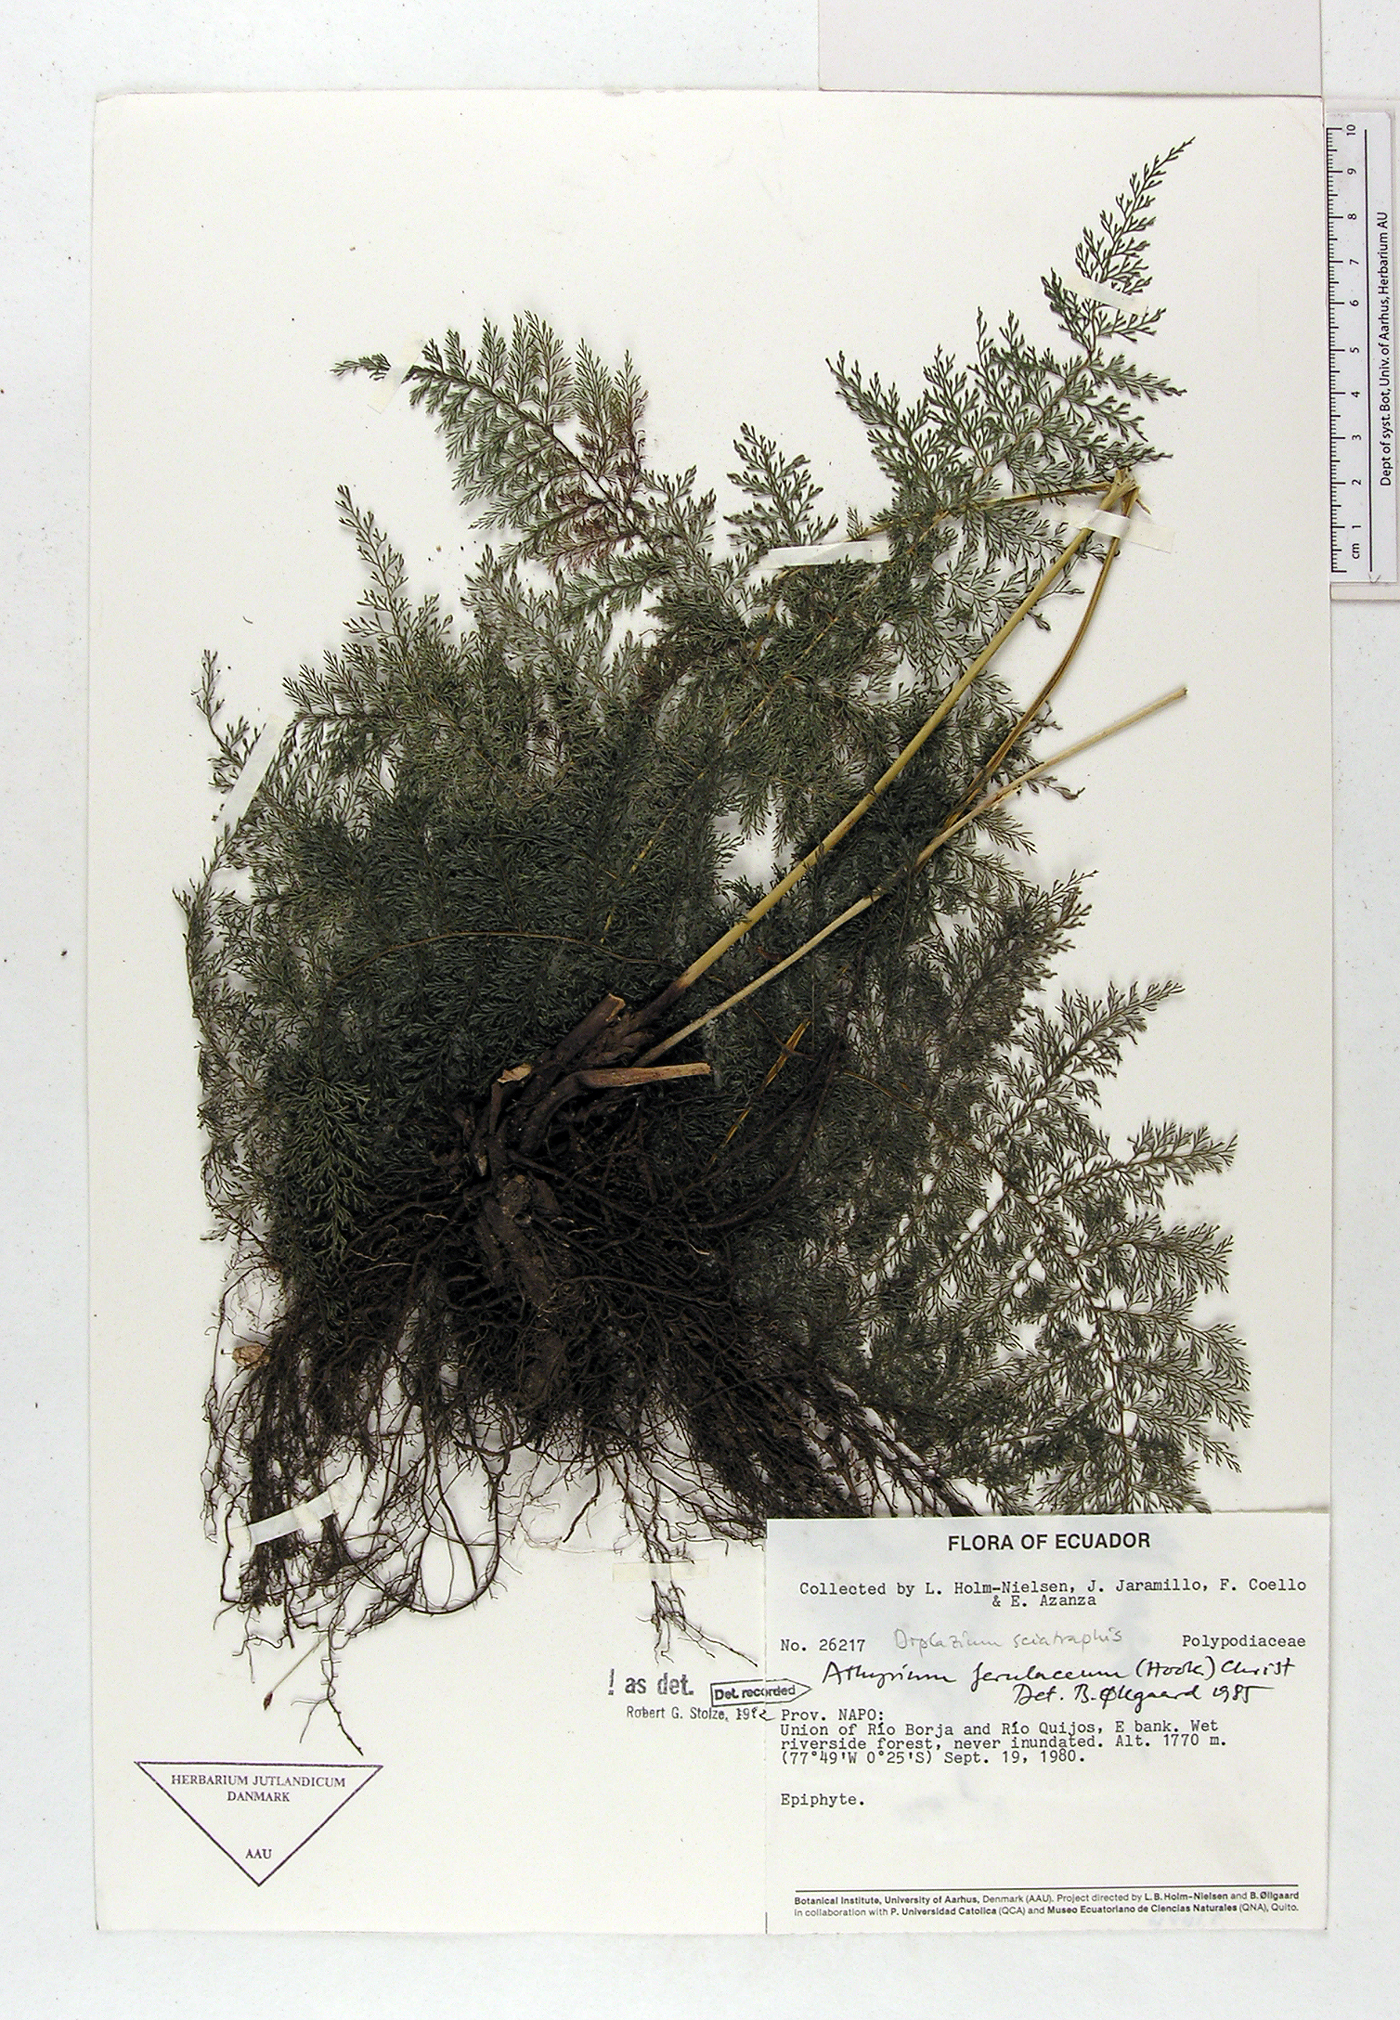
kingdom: Plantae
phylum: Tracheophyta
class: Polypodiopsida
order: Polypodiales
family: Athyriaceae
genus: Athyrium
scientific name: Athyrium ferulaceum
